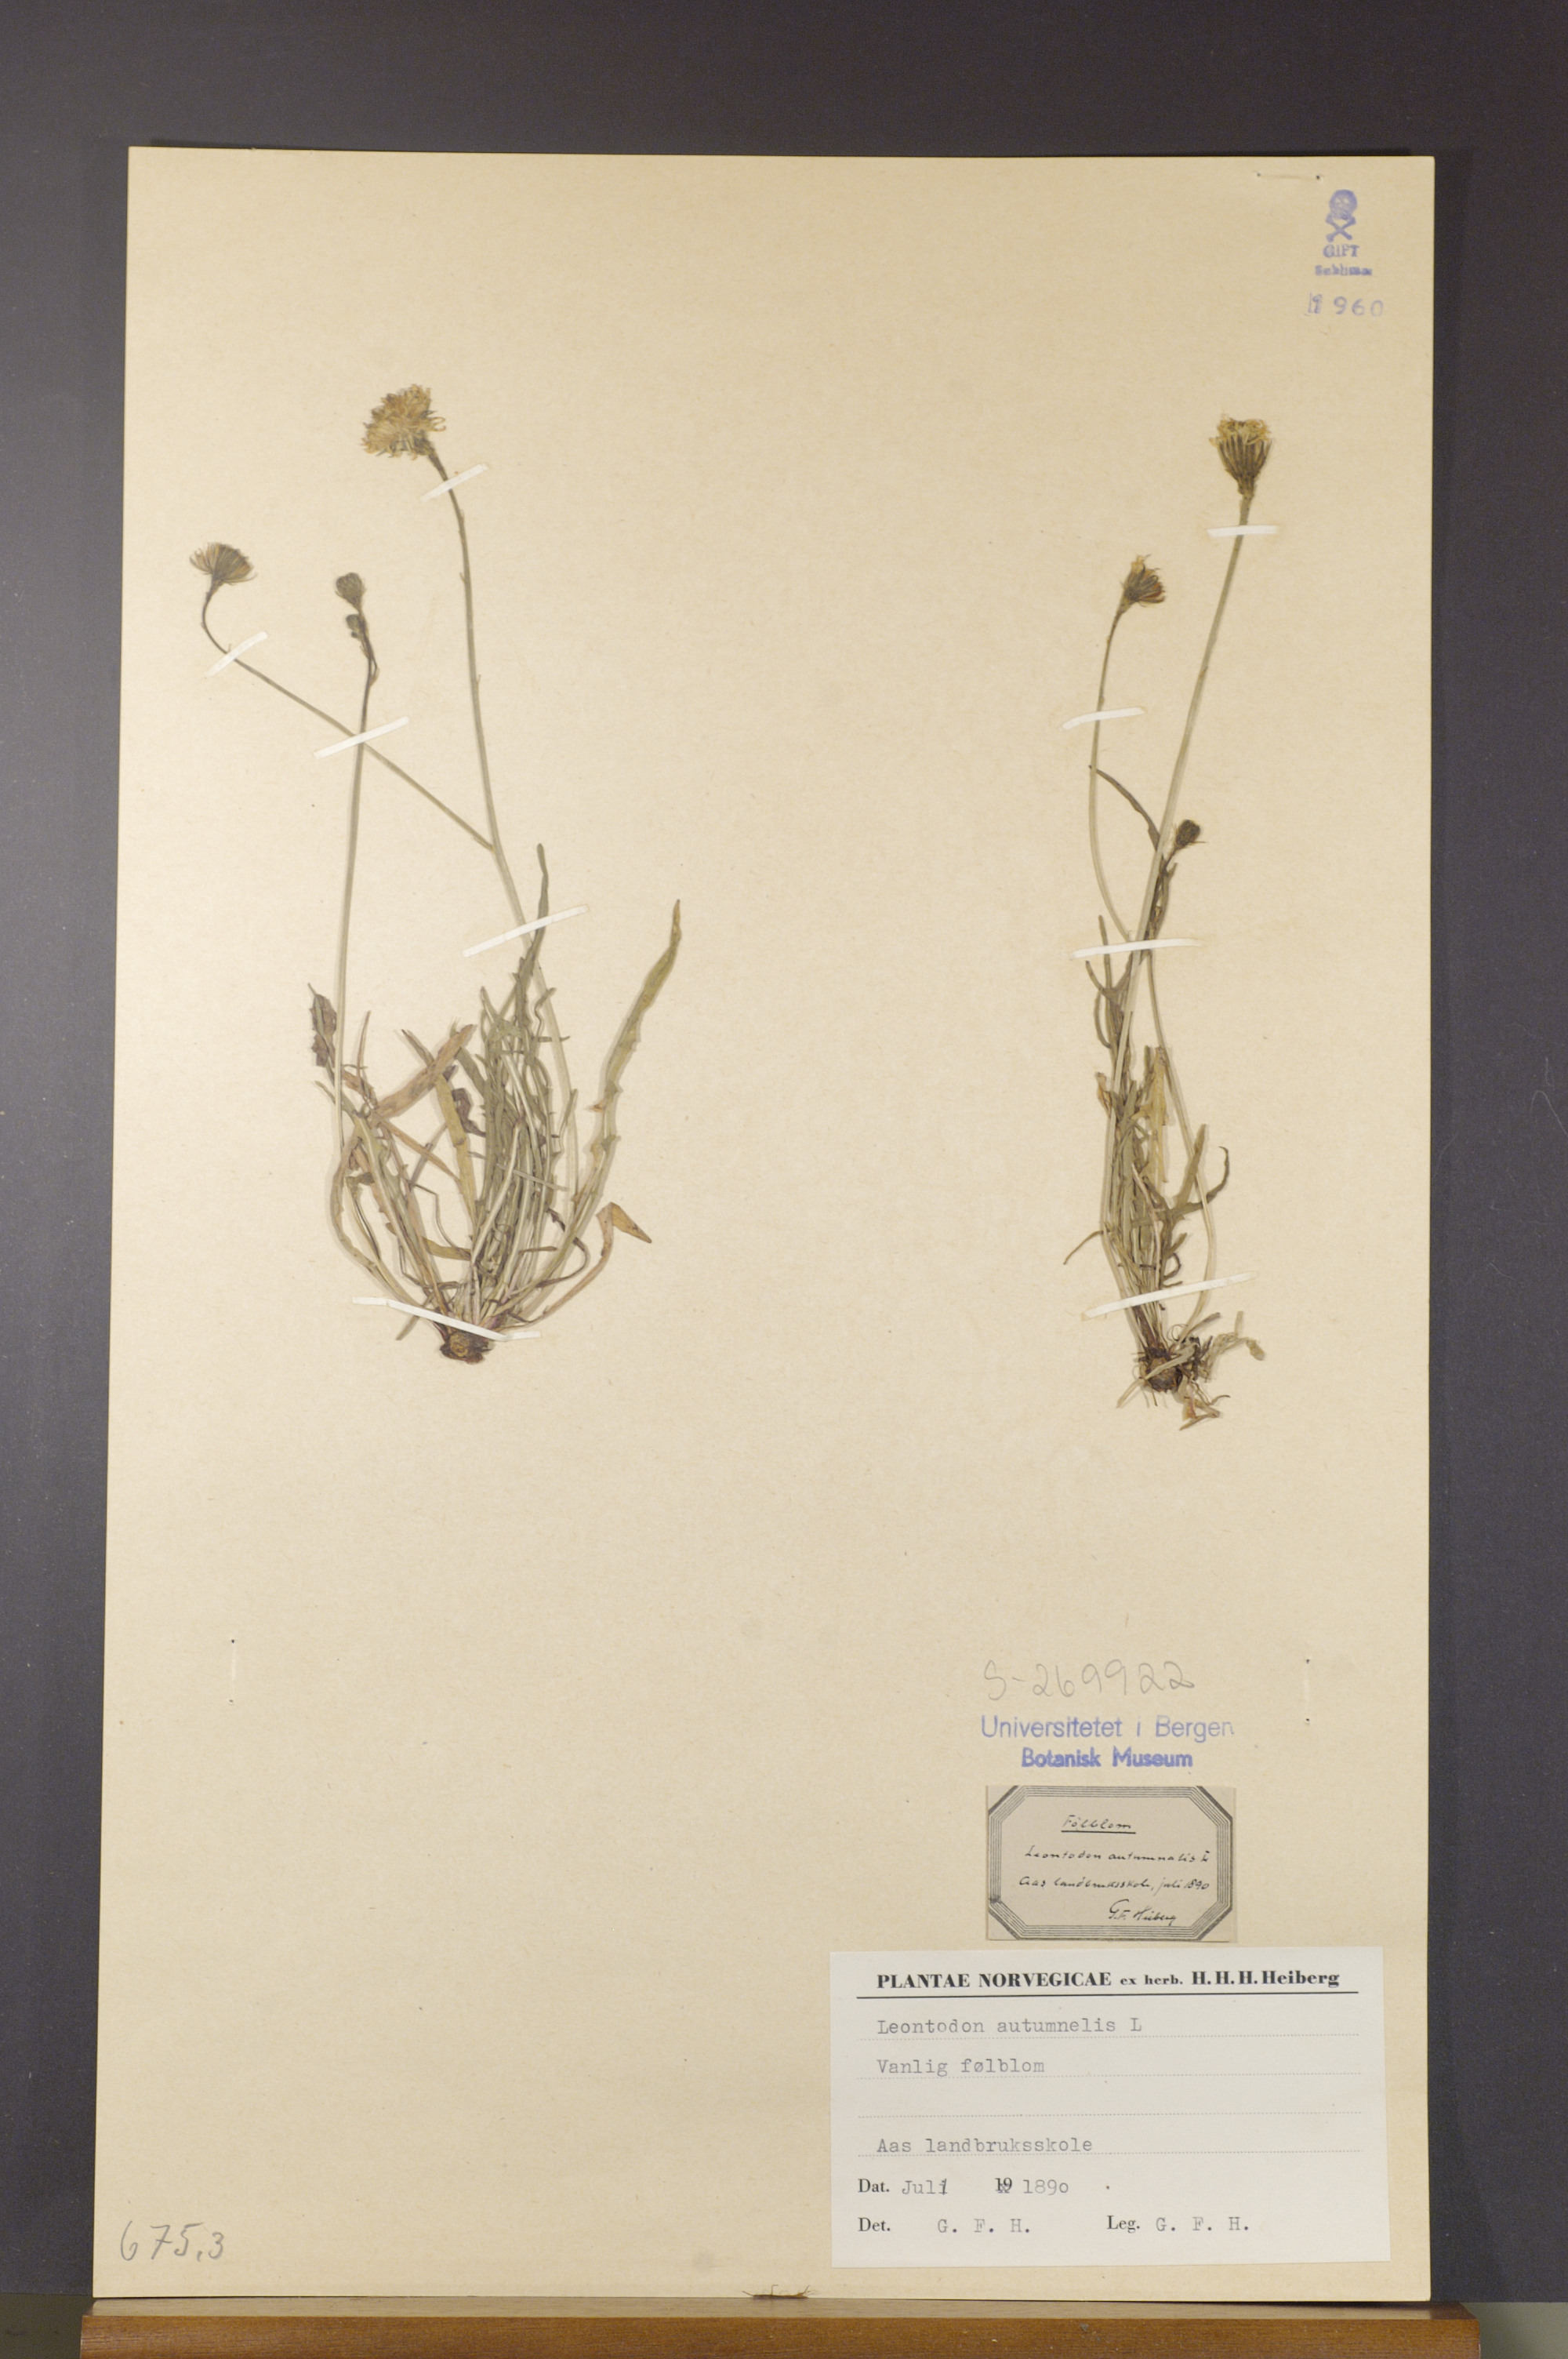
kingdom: Plantae
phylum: Tracheophyta
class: Magnoliopsida
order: Asterales
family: Asteraceae
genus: Scorzoneroides
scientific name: Scorzoneroides autumnalis
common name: Autumn hawkbit
